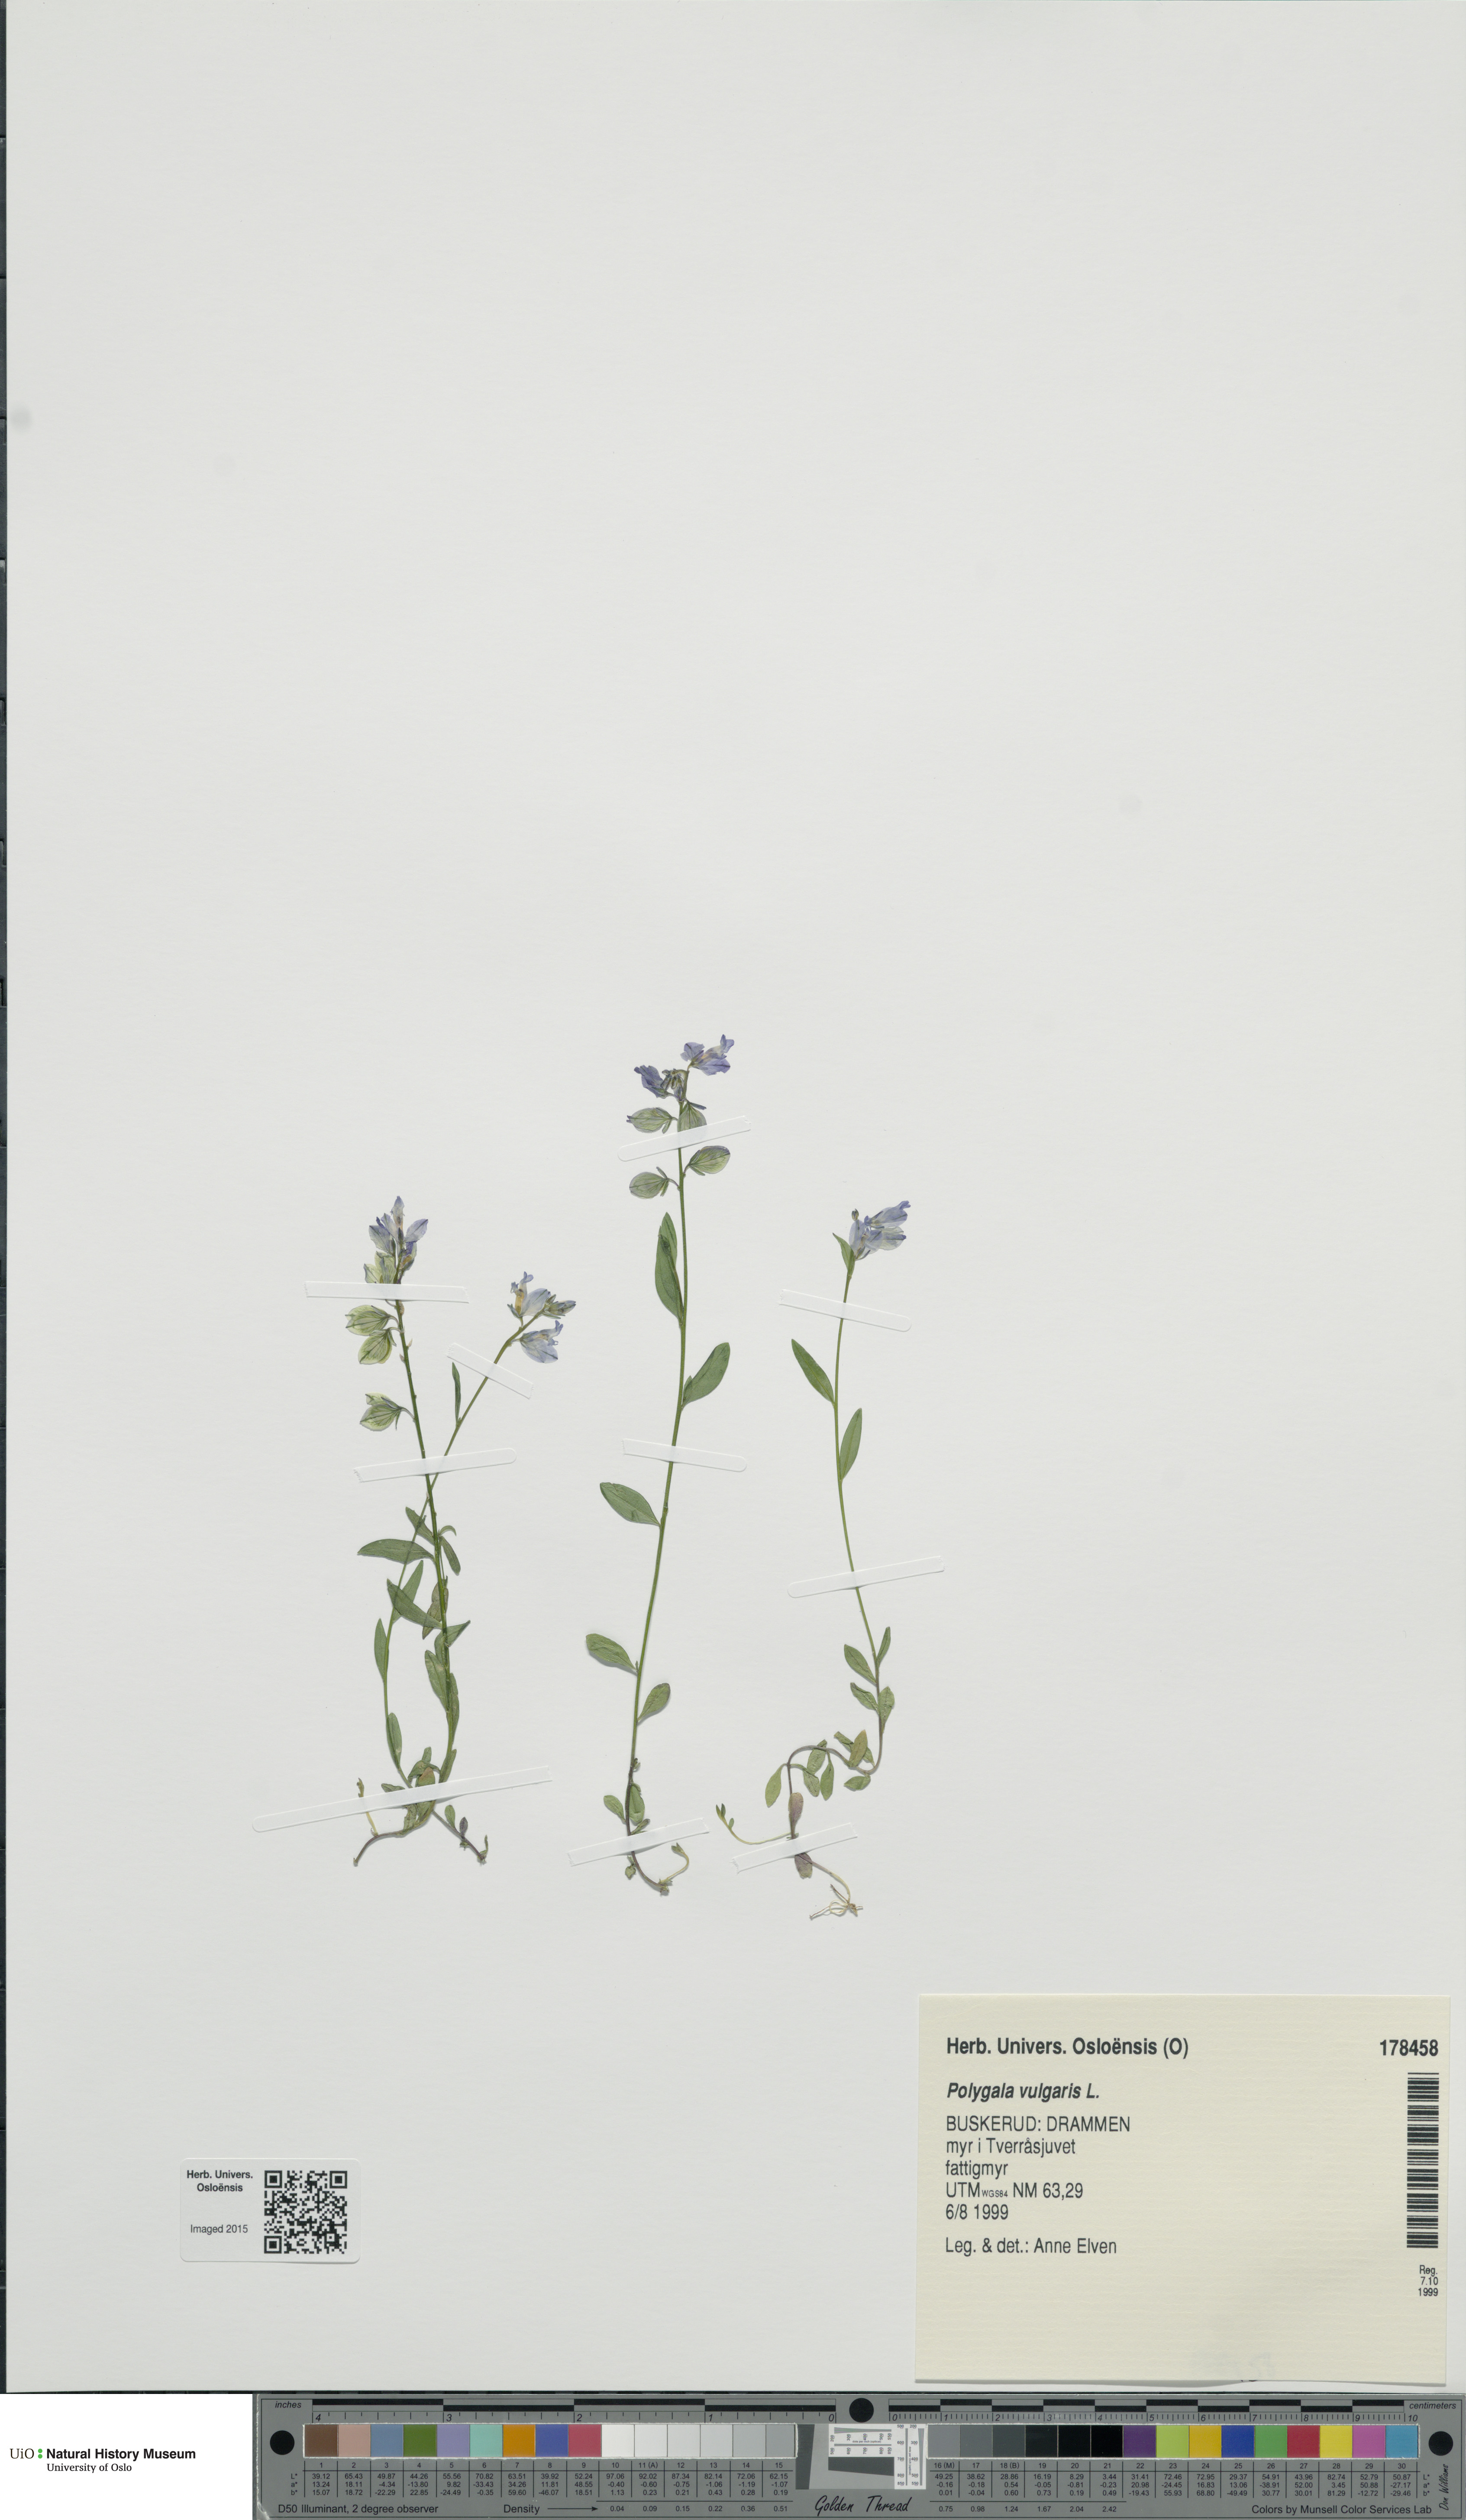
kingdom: Plantae
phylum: Tracheophyta
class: Magnoliopsida
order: Fabales
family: Polygalaceae
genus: Polygala
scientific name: Polygala vulgaris
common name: Common milkwort
